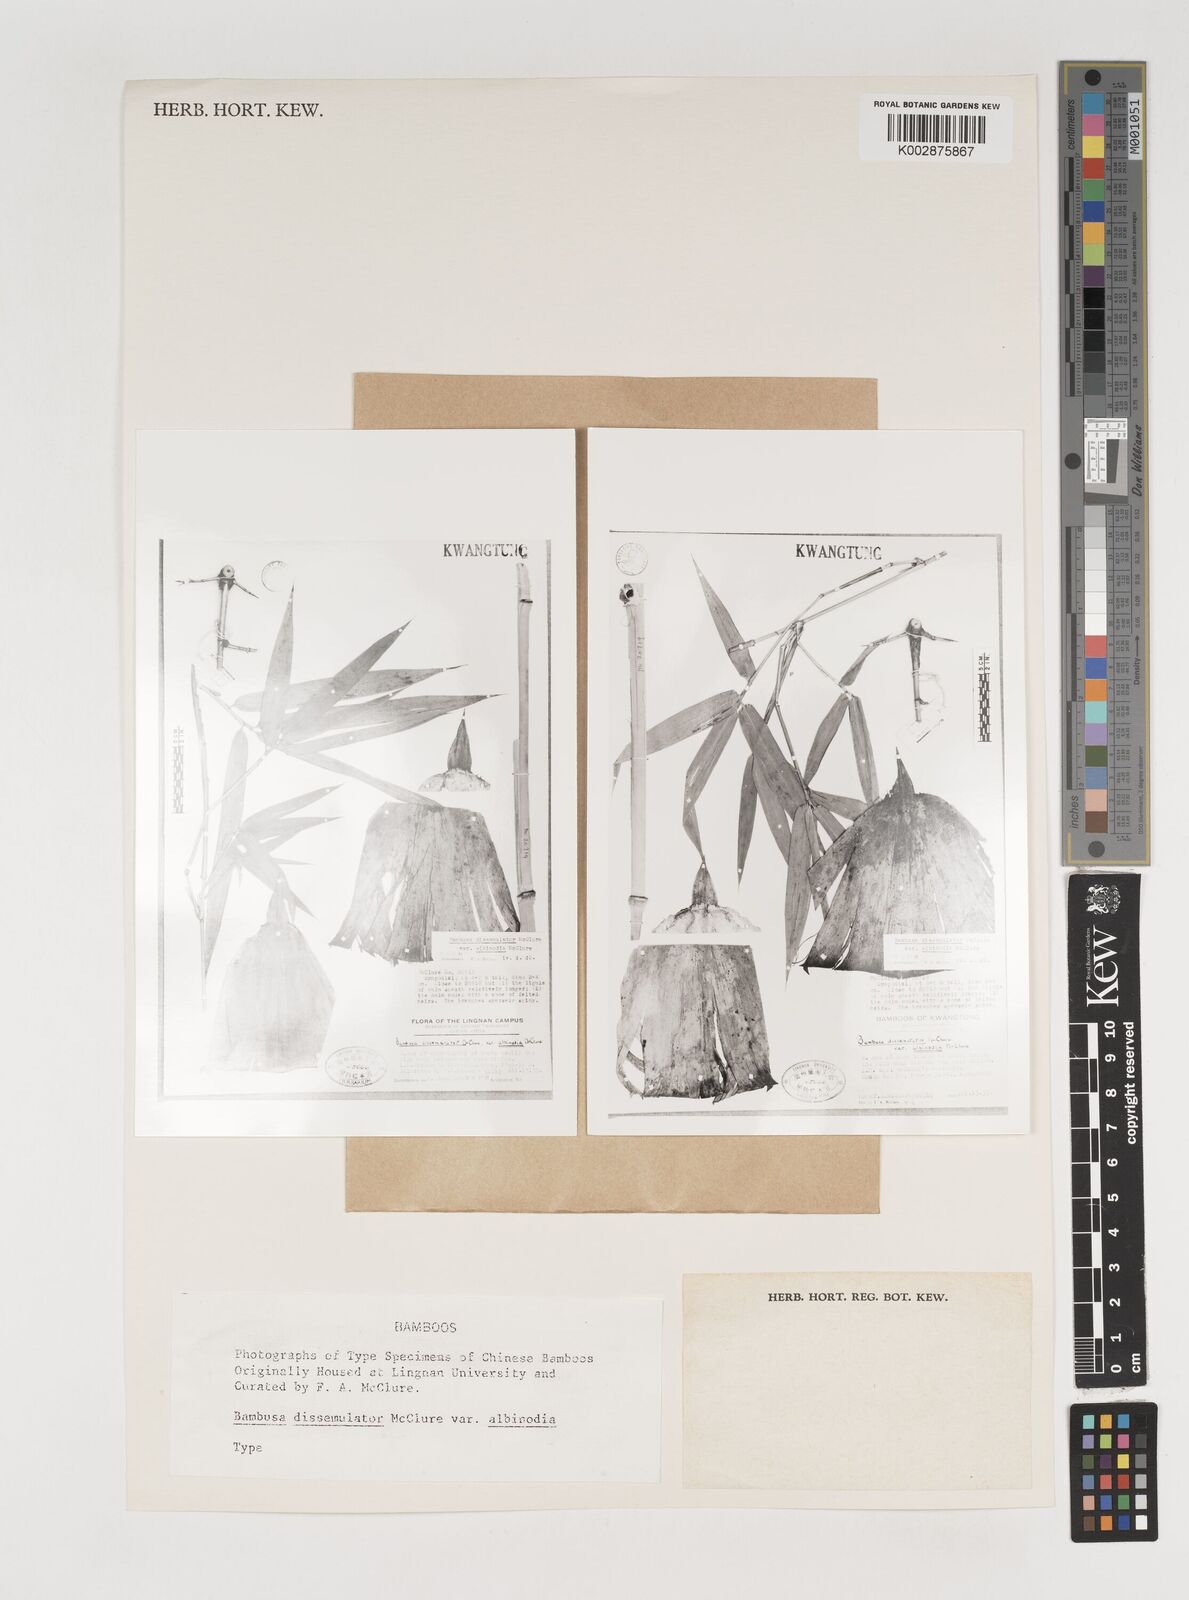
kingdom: Plantae
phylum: Tracheophyta
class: Liliopsida
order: Poales
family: Poaceae
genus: Bambusa
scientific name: Bambusa dissimulator
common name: Muddy bamboo
